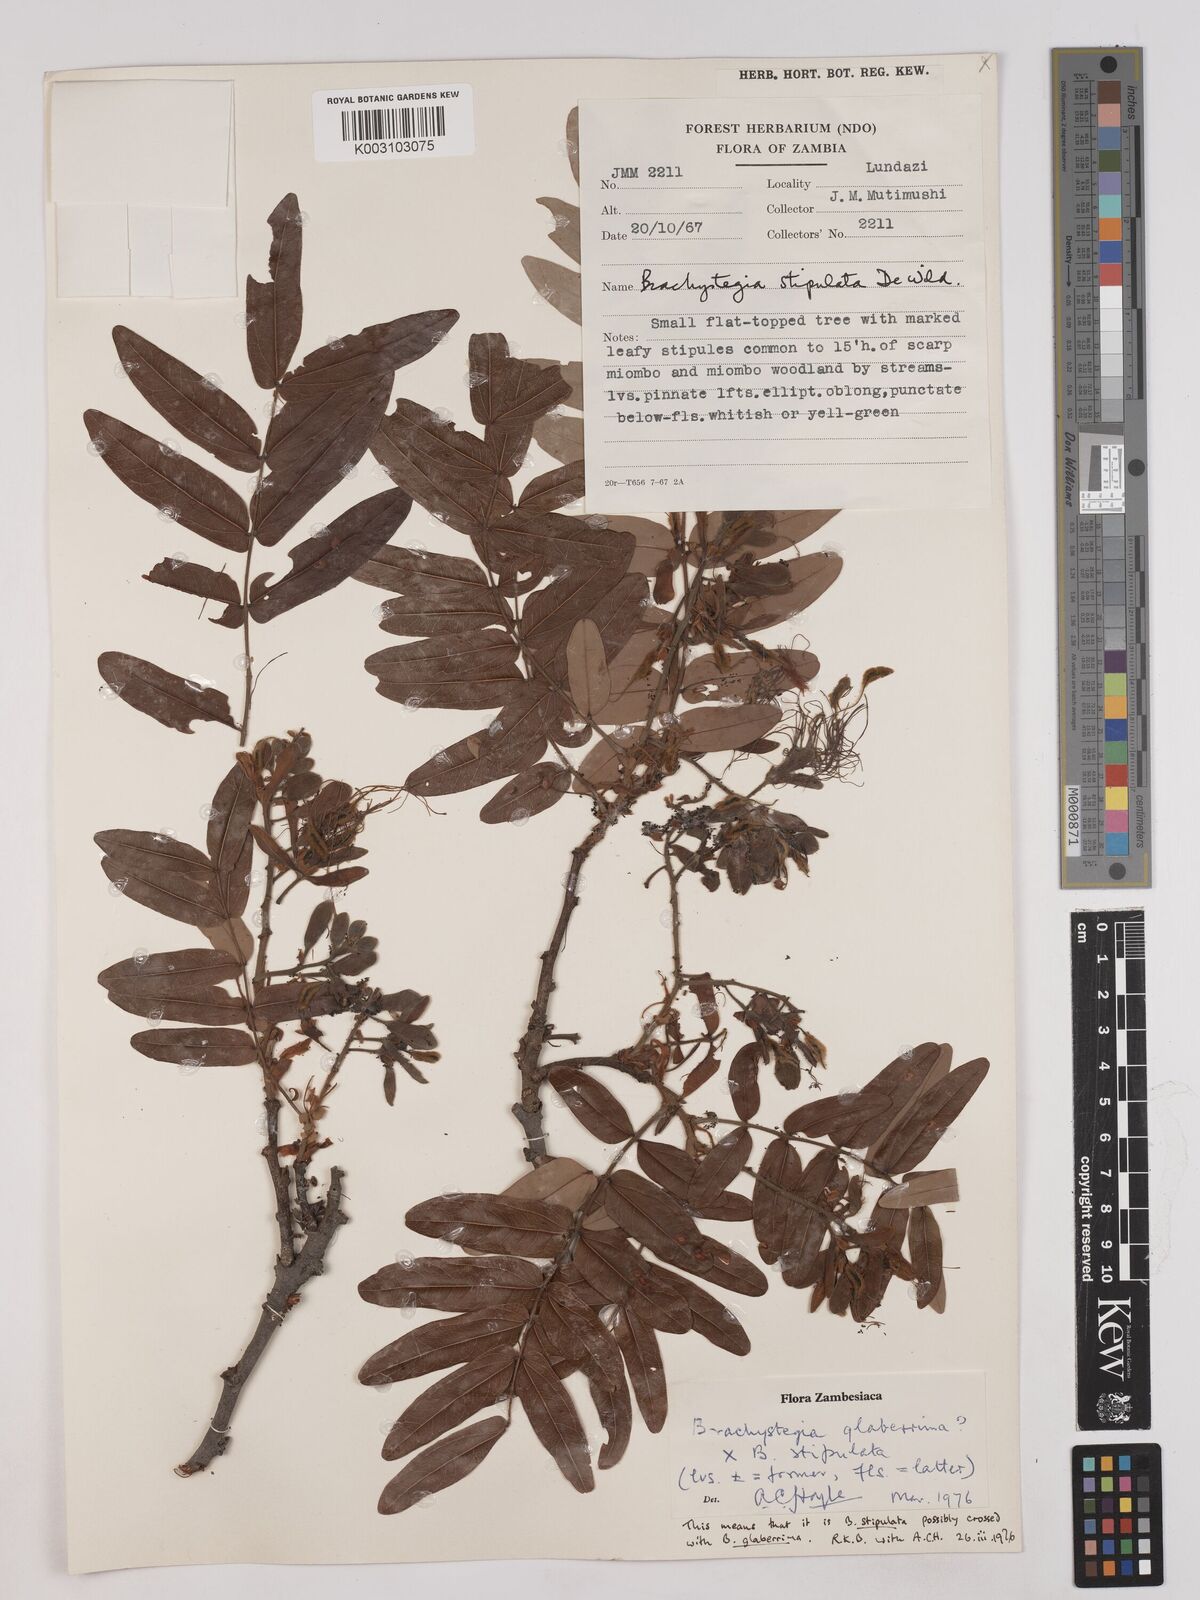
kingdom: Plantae
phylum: Tracheophyta
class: Magnoliopsida
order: Fabales
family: Fabaceae
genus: Brachystegia
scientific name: Brachystegia stipulata
